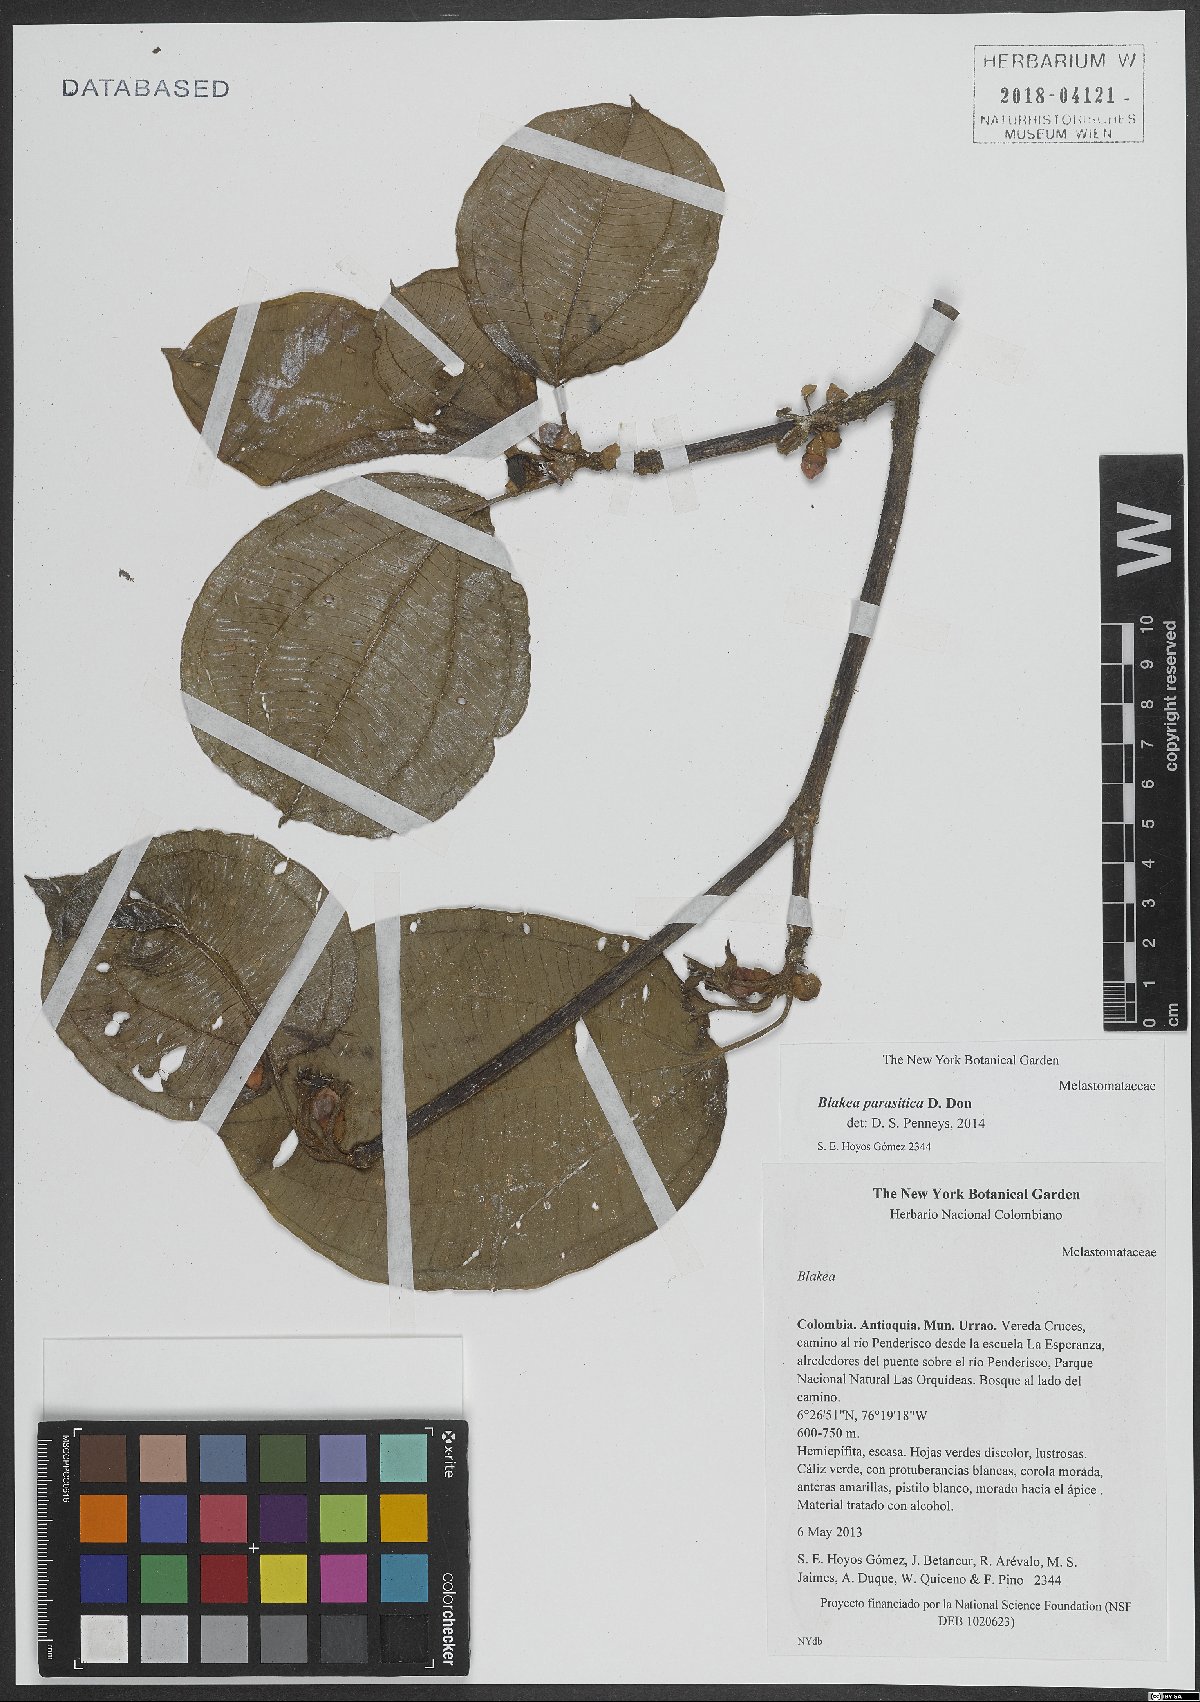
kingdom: Plantae
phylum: Tracheophyta
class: Magnoliopsida
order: Myrtales
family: Melastomataceae
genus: Blakea
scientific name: Blakea parasitica
